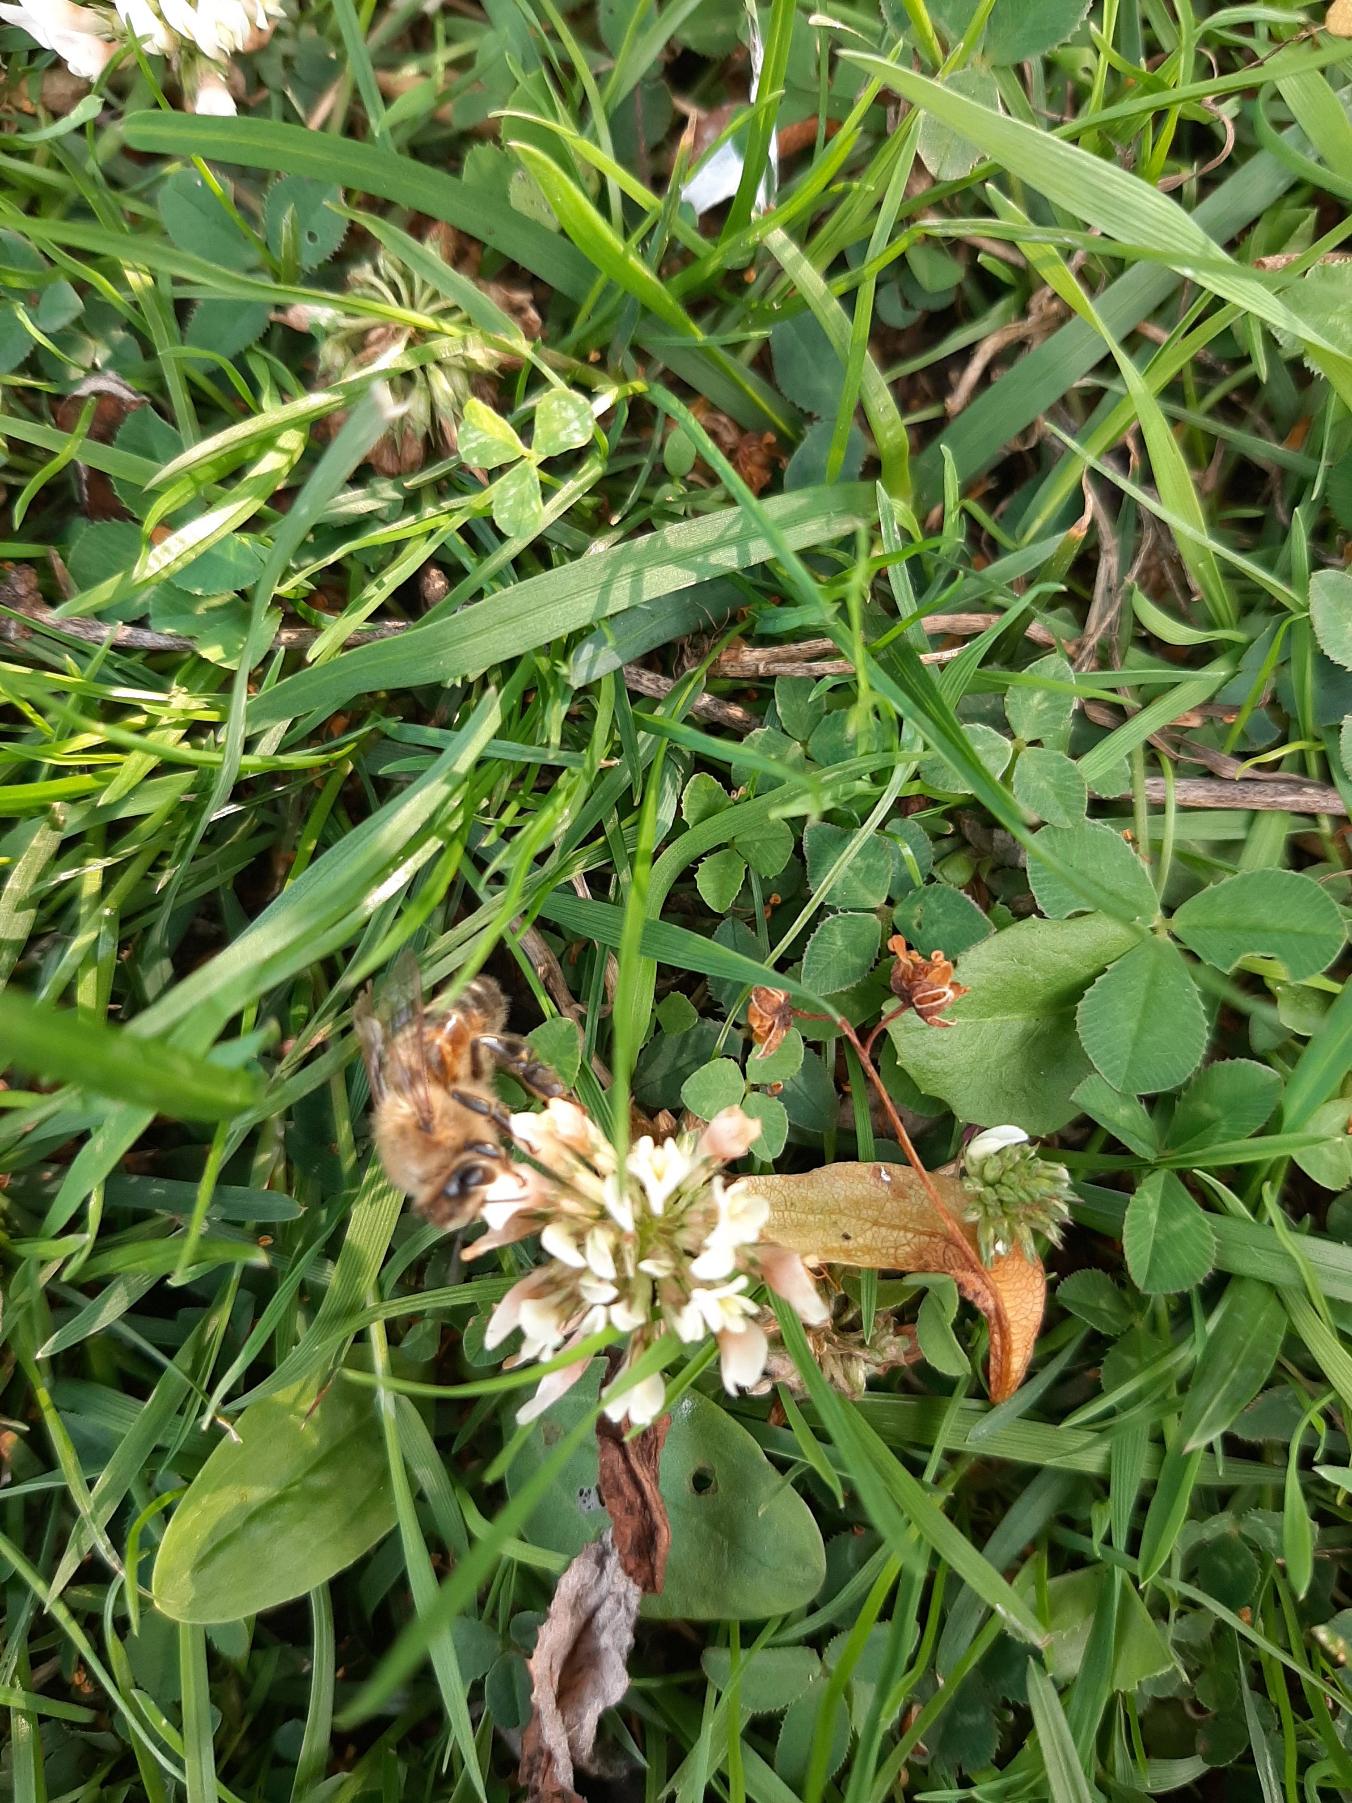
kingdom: Plantae
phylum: Tracheophyta
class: Magnoliopsida
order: Fabales
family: Fabaceae
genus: Trifolium
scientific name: Trifolium repens
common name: Hvid-kløver
